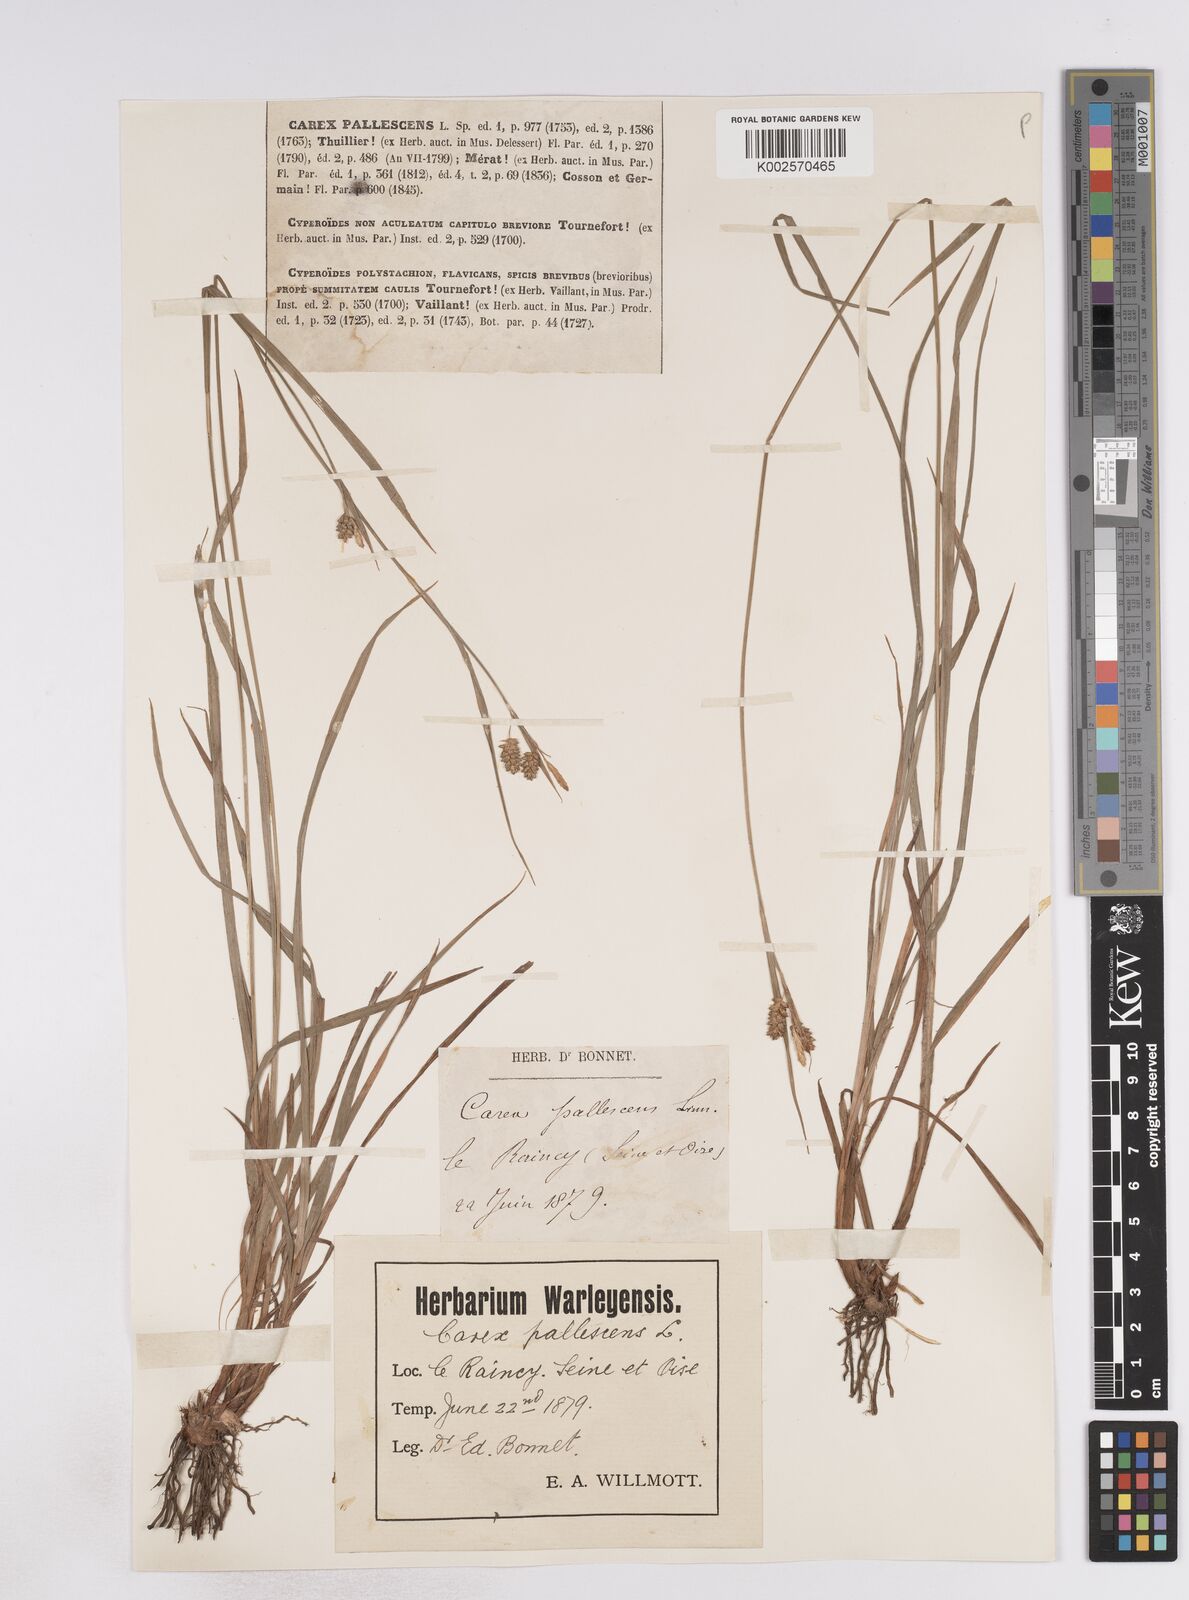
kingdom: Plantae
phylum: Tracheophyta
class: Liliopsida
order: Poales
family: Cyperaceae
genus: Carex
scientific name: Carex pallescens
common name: Pale sedge
